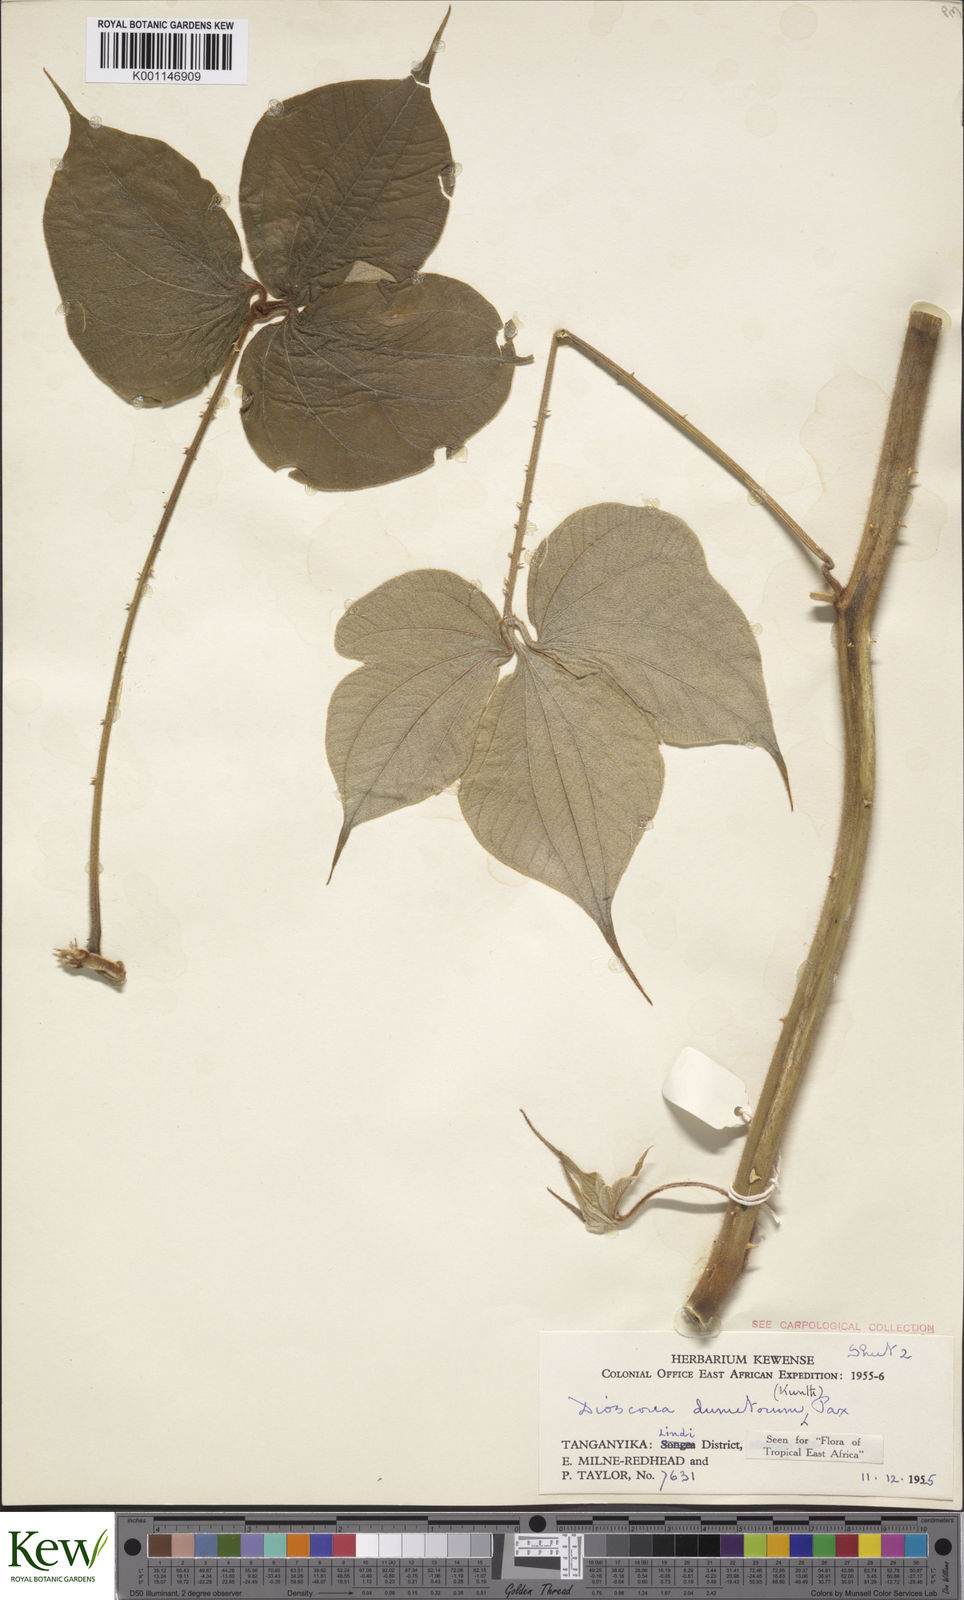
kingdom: Plantae
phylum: Tracheophyta
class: Liliopsida
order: Dioscoreales
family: Dioscoreaceae
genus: Dioscorea
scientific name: Dioscorea dumetorum
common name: African bitter yam
